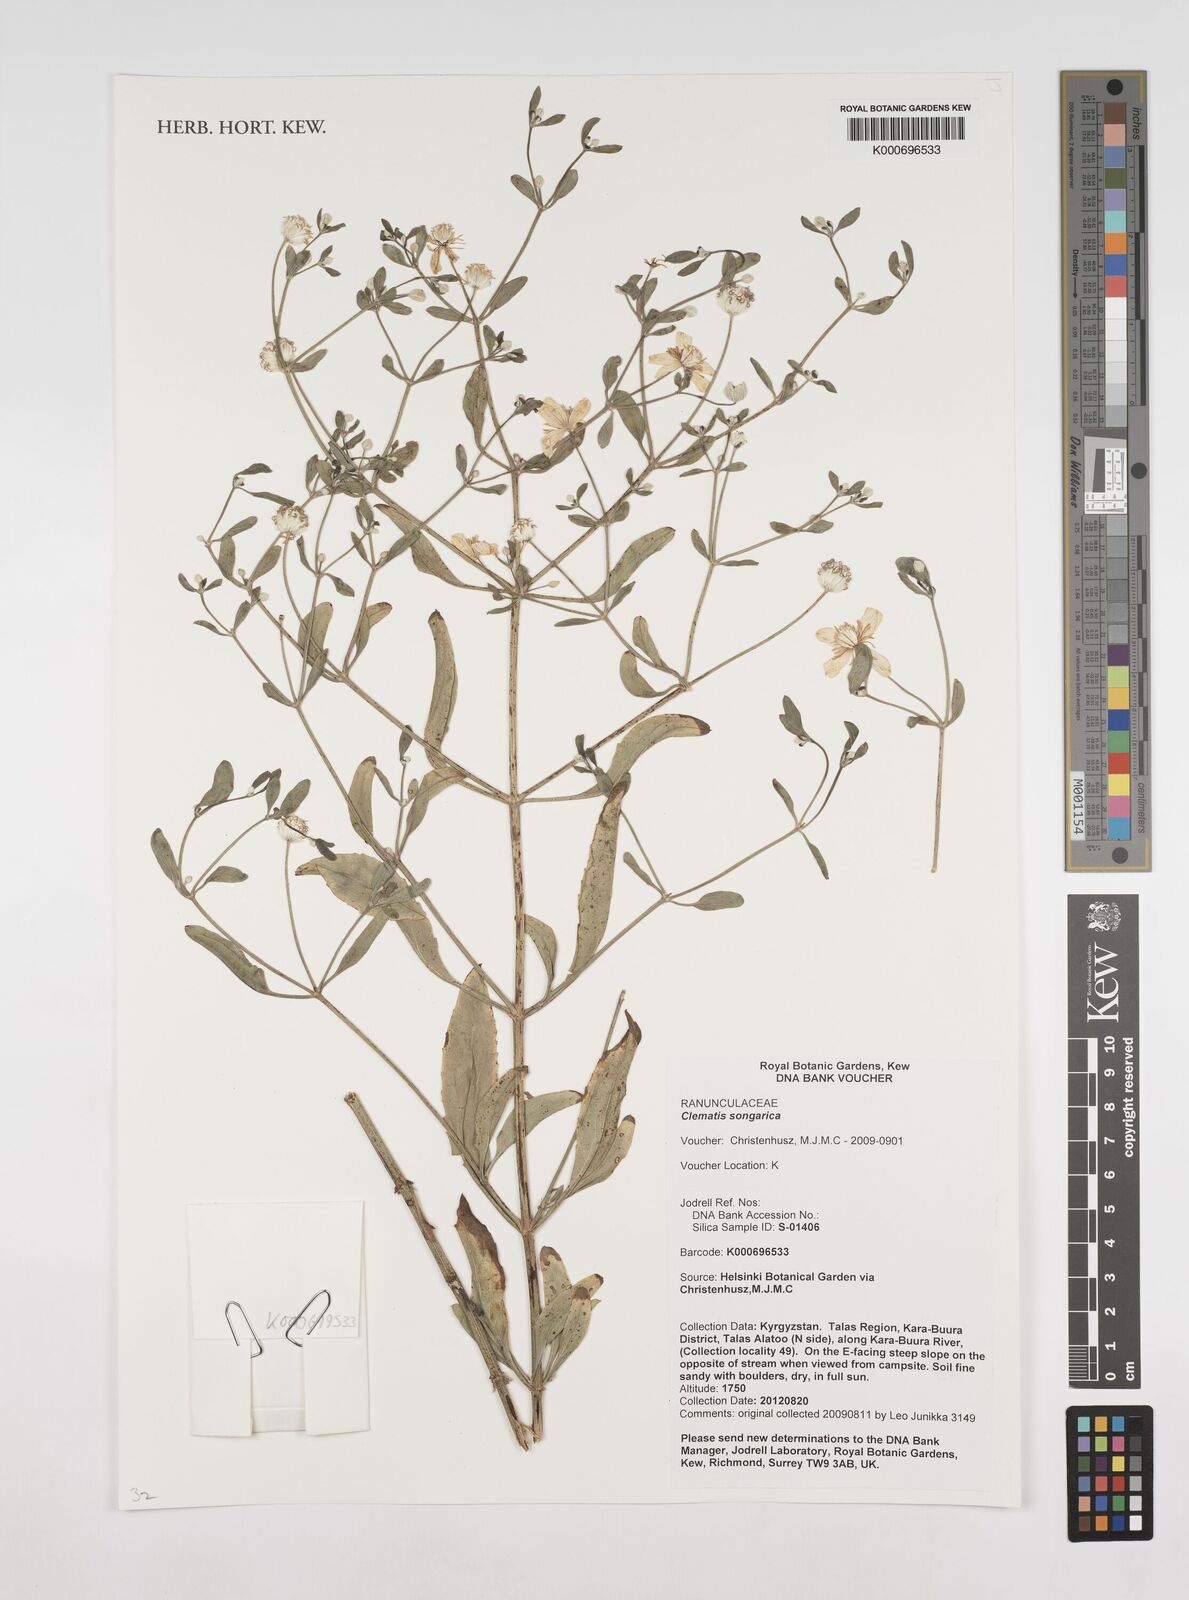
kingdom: Plantae
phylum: Tracheophyta
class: Magnoliopsida
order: Ranunculales
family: Ranunculaceae
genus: Clematis
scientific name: Clematis
